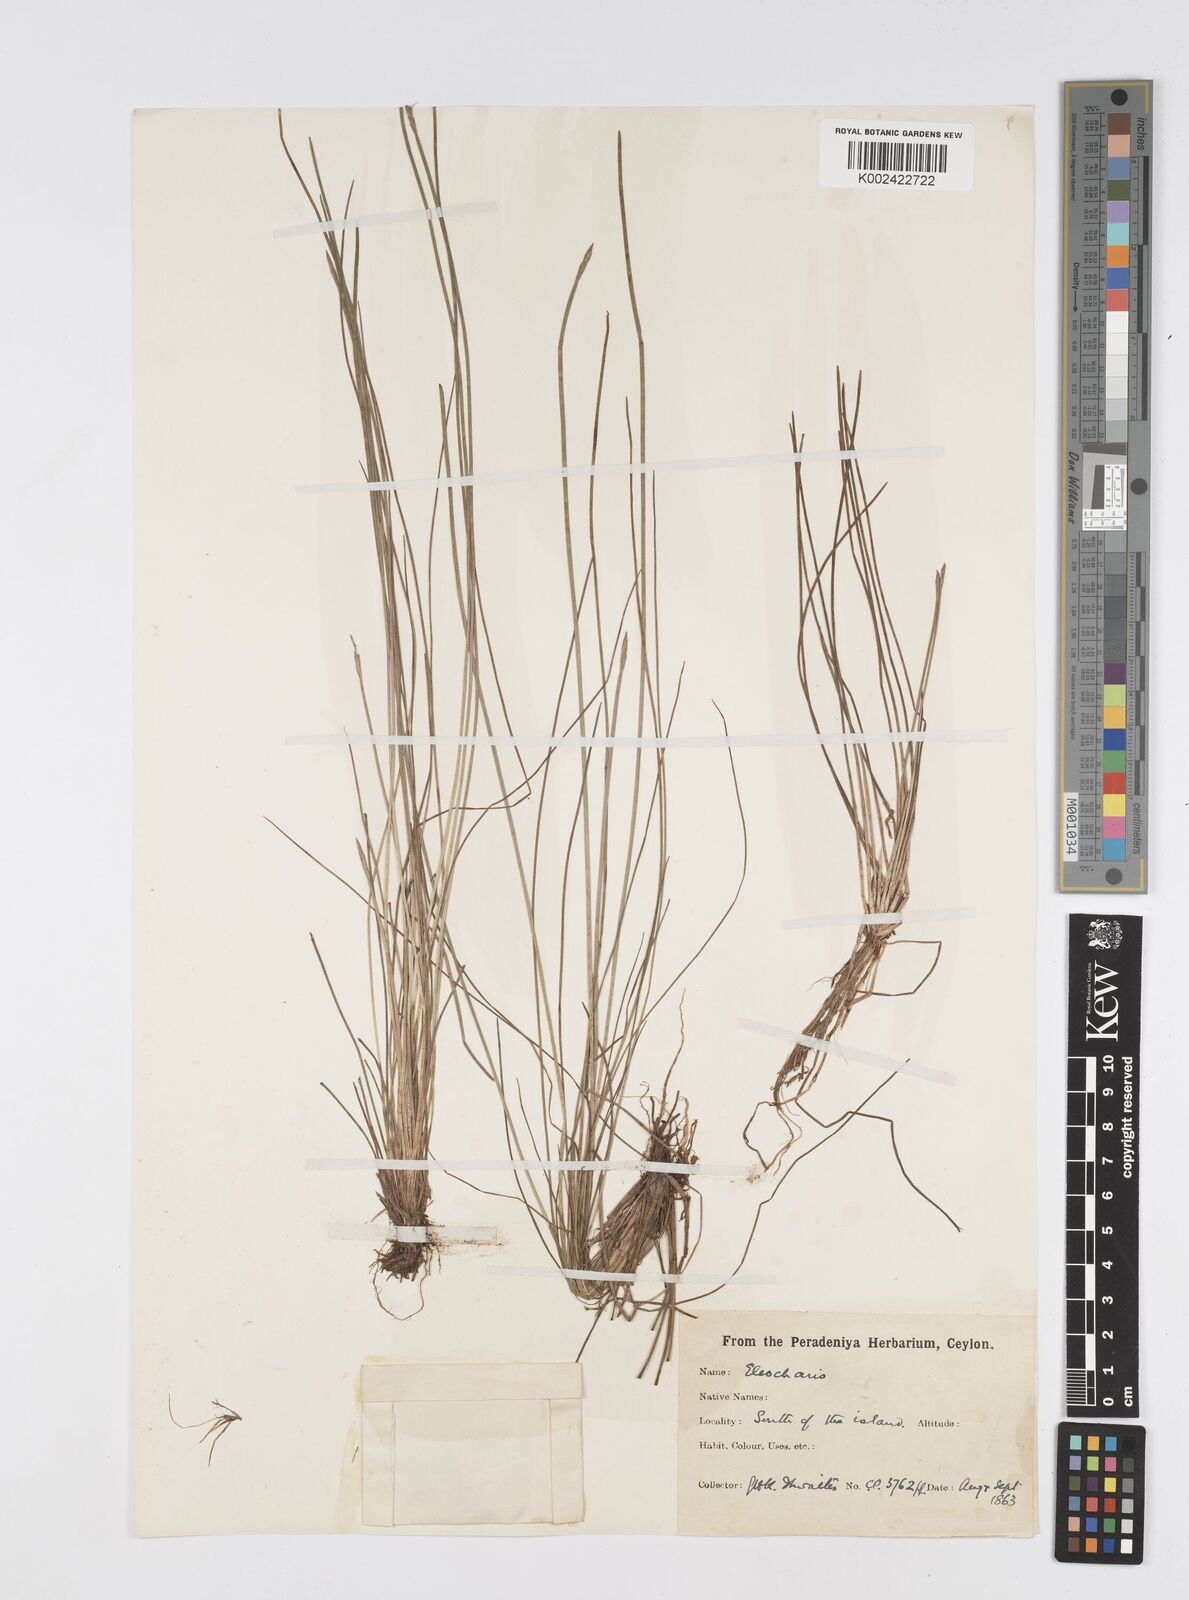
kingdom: Plantae
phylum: Tracheophyta
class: Liliopsida
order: Poales
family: Cyperaceae
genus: Eleocharis
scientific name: Eleocharis
